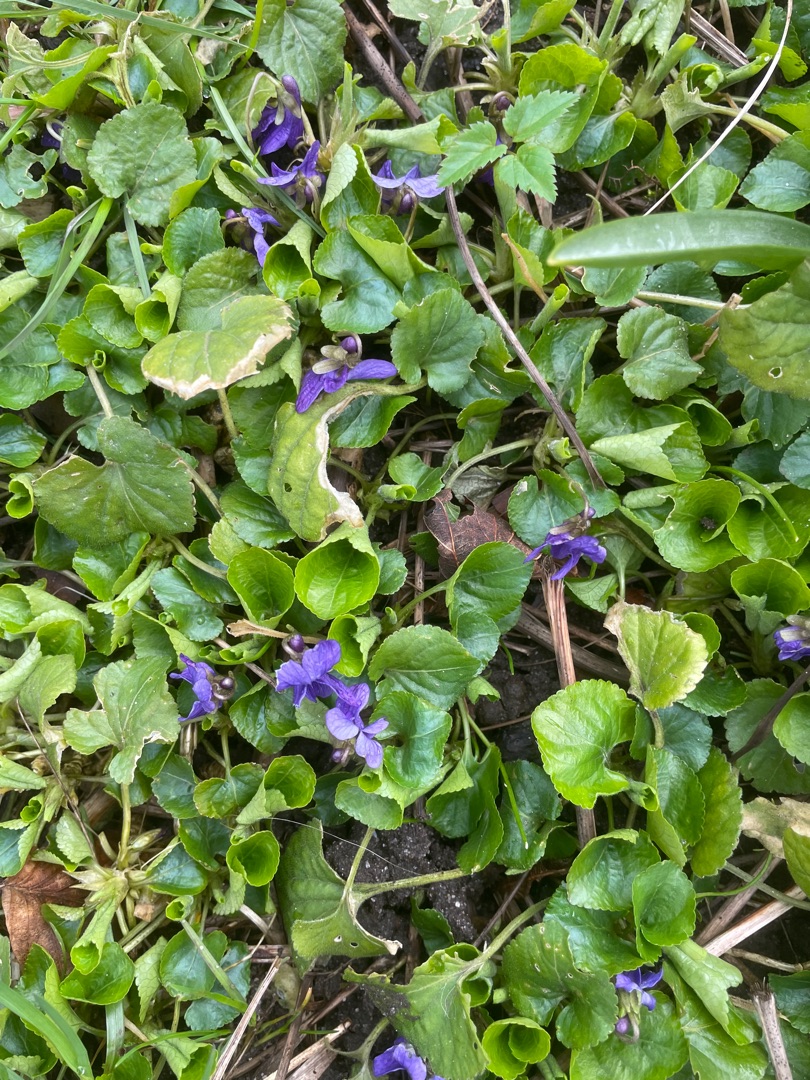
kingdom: Plantae
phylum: Tracheophyta
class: Magnoliopsida
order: Malpighiales
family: Violaceae
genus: Viola
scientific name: Viola odorata
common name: Marts-viol
